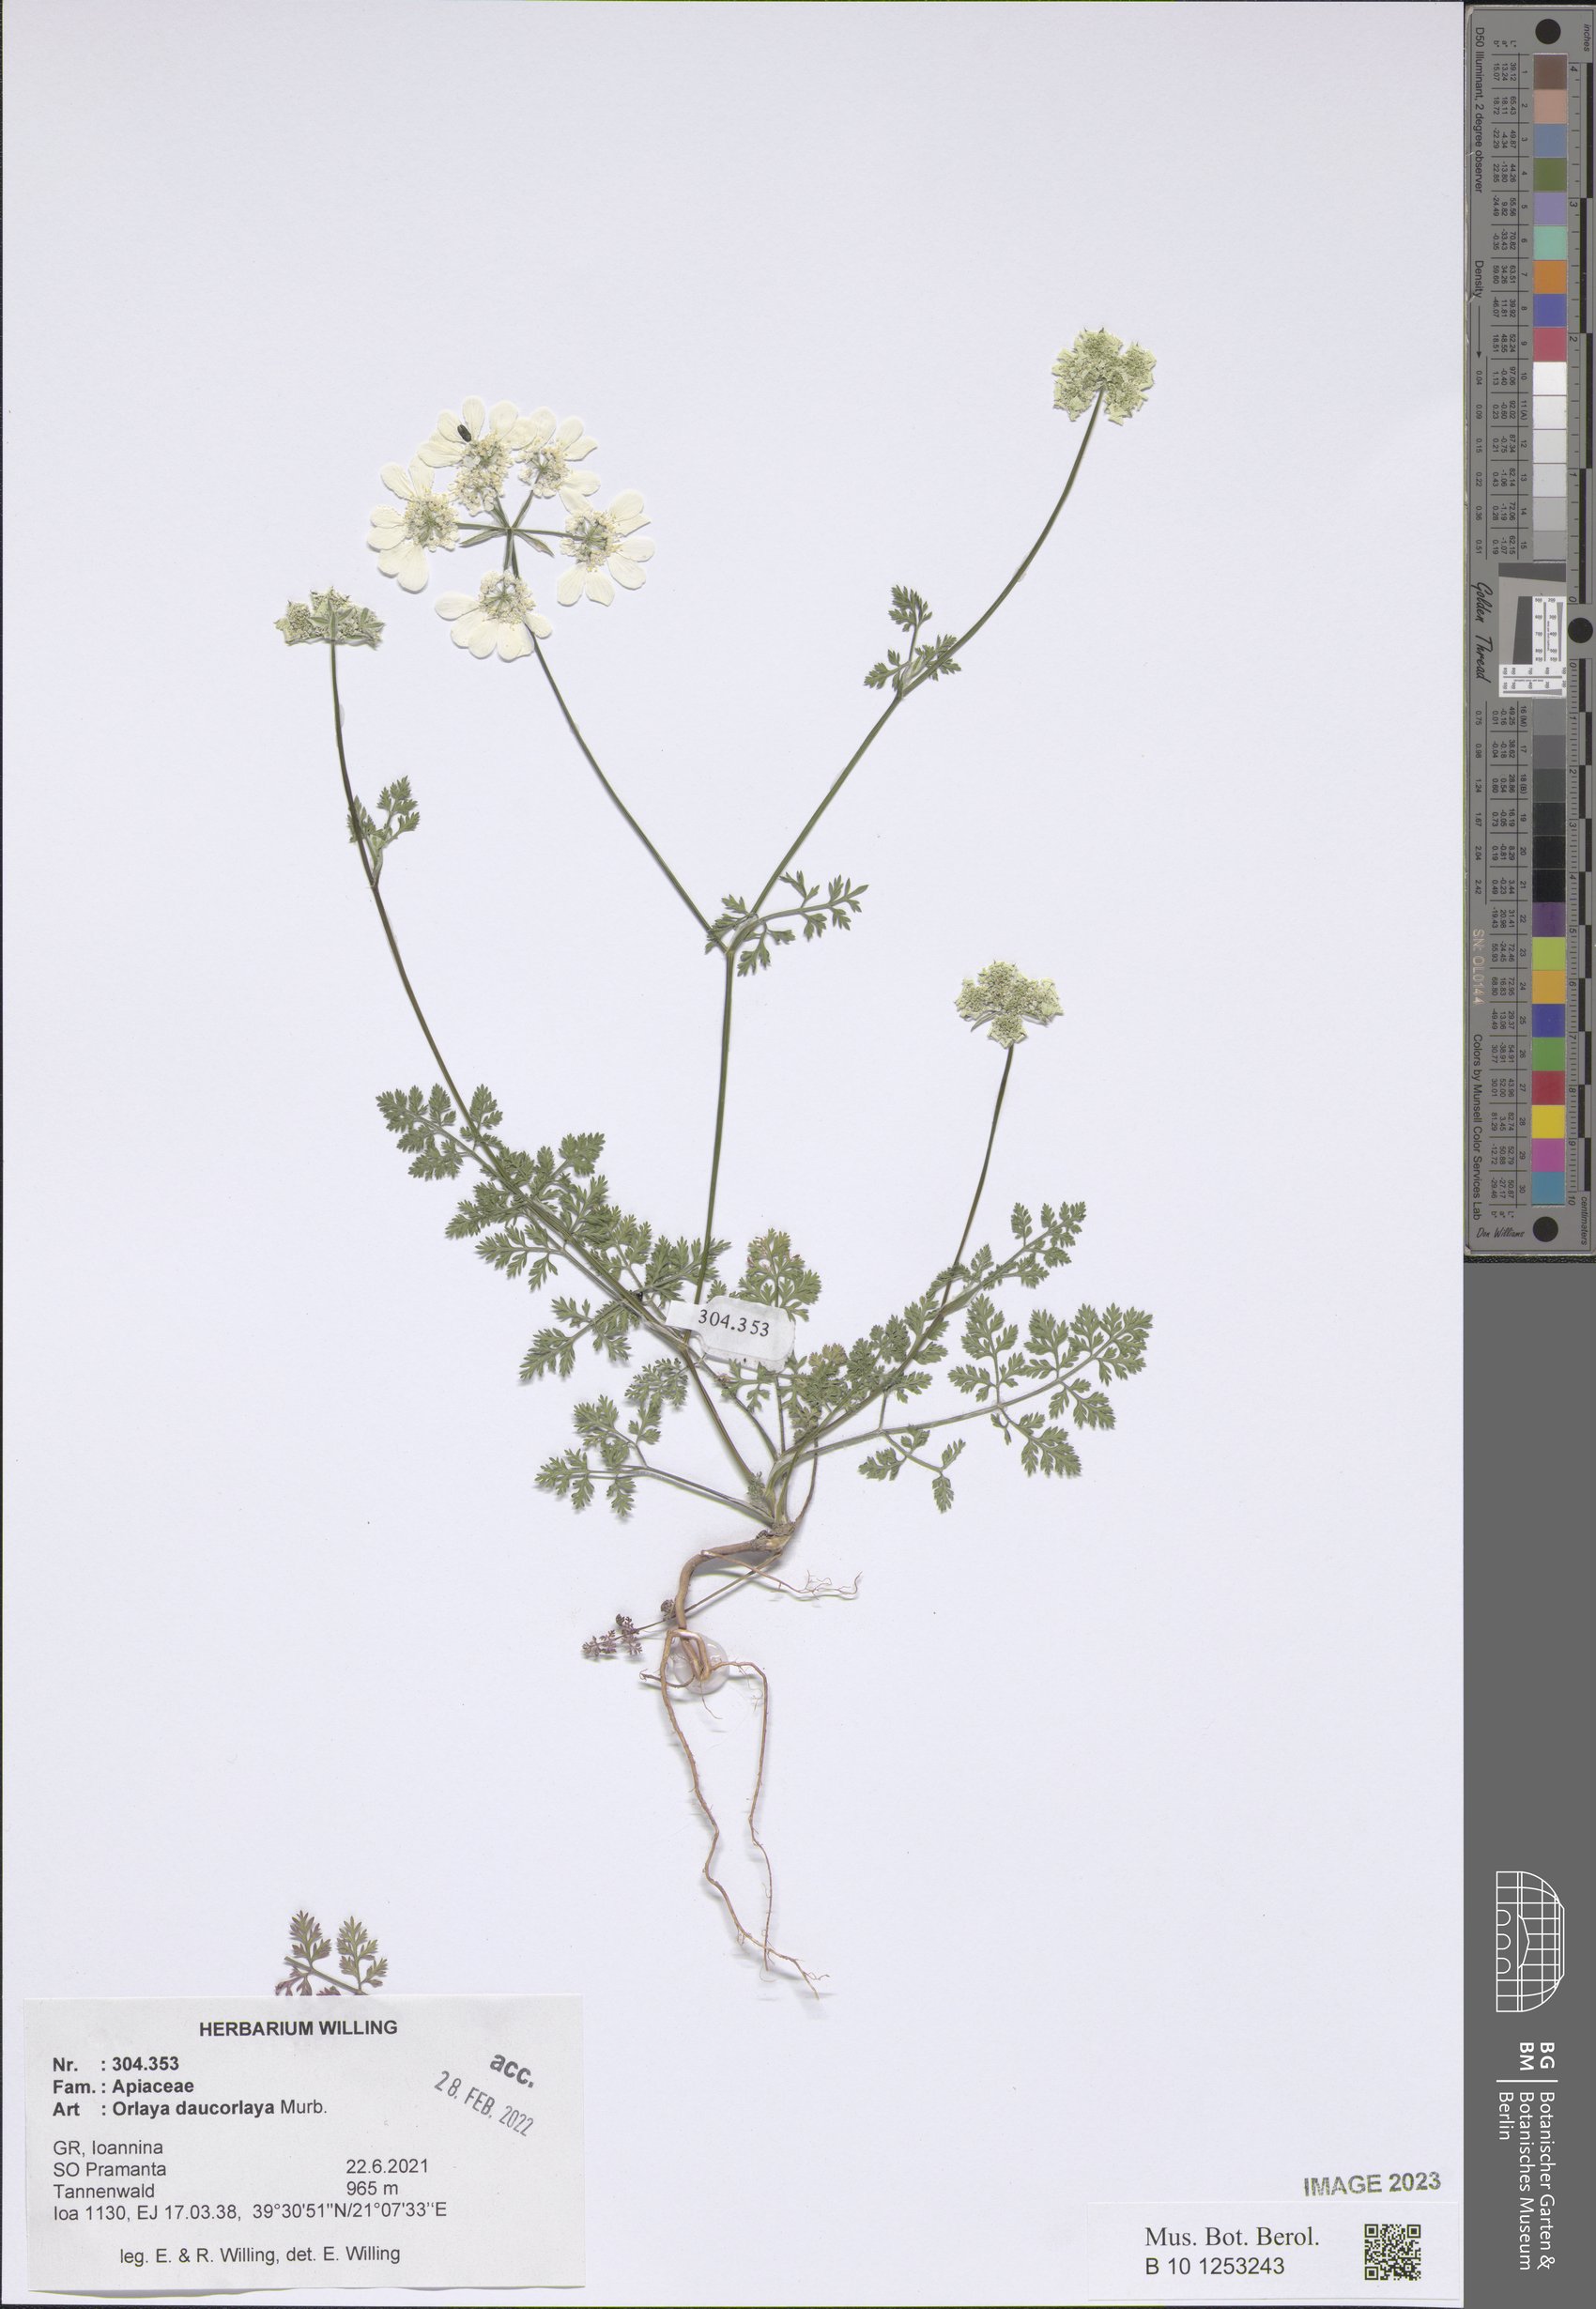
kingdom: Plantae
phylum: Tracheophyta
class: Magnoliopsida
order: Apiales
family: Apiaceae
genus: Orlaya
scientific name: Orlaya daucorlaya
